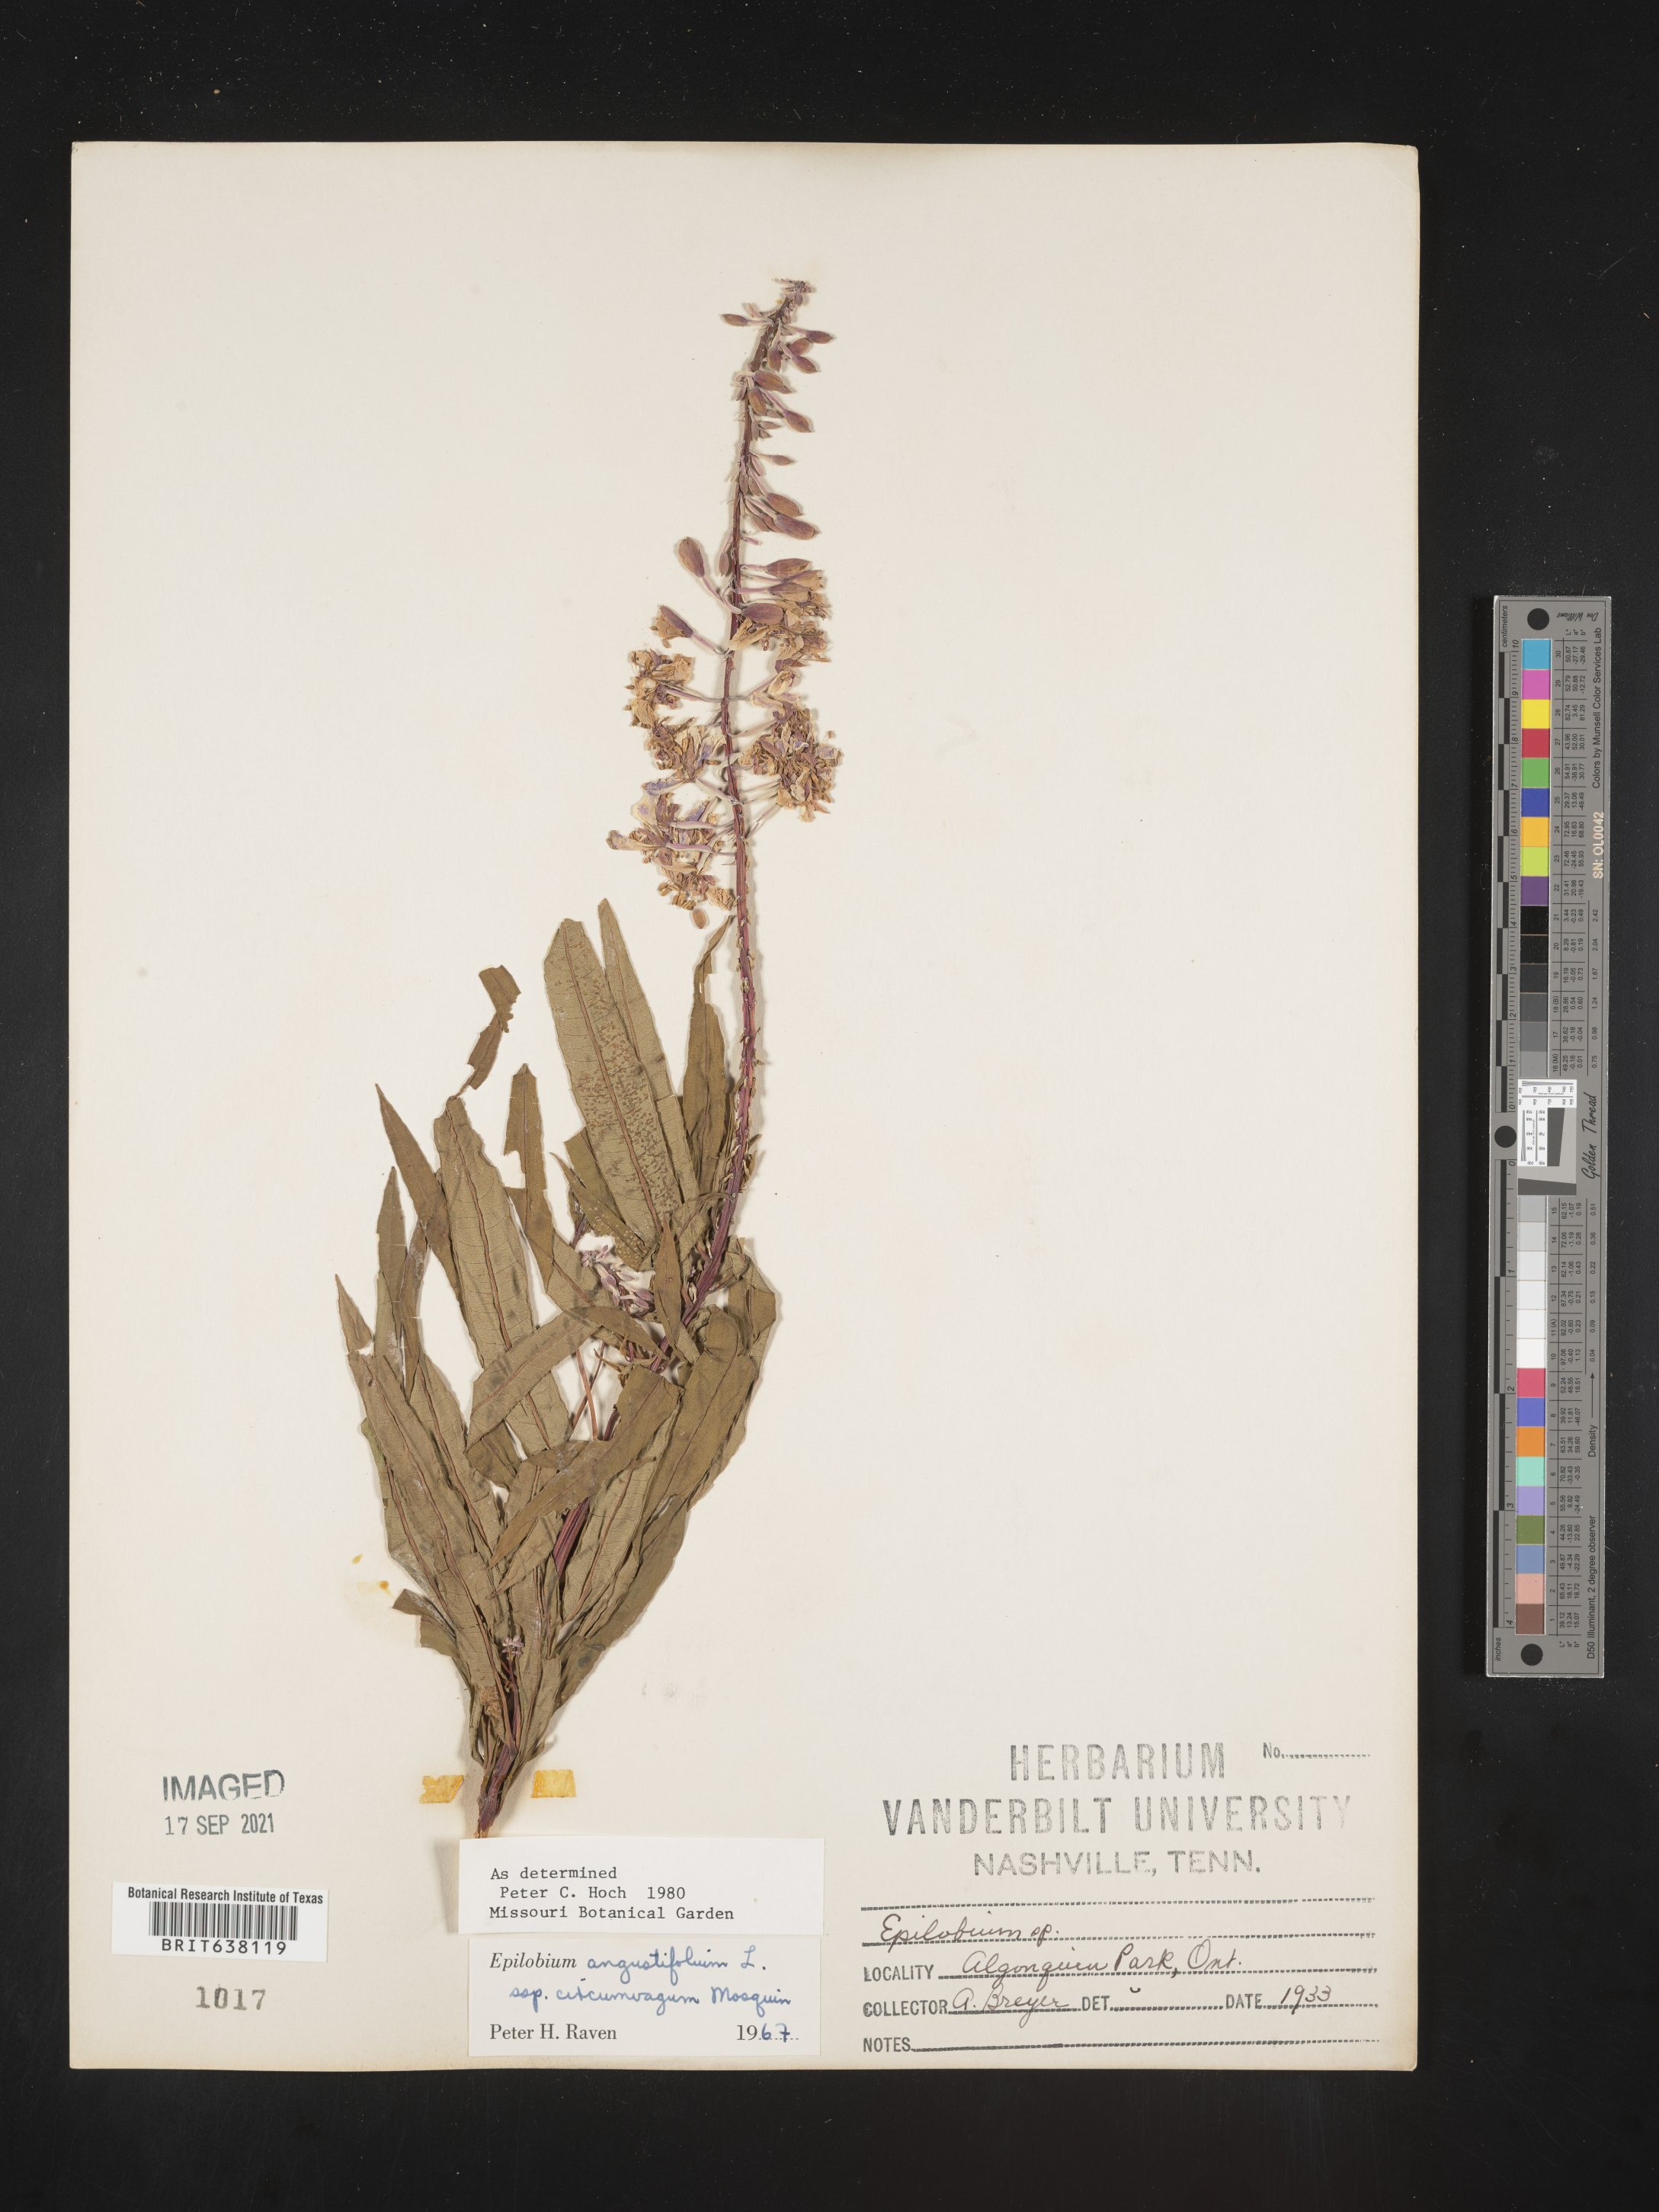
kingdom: Plantae
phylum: Tracheophyta
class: Magnoliopsida
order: Myrtales
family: Onagraceae
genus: Epilobium
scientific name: Epilobium
